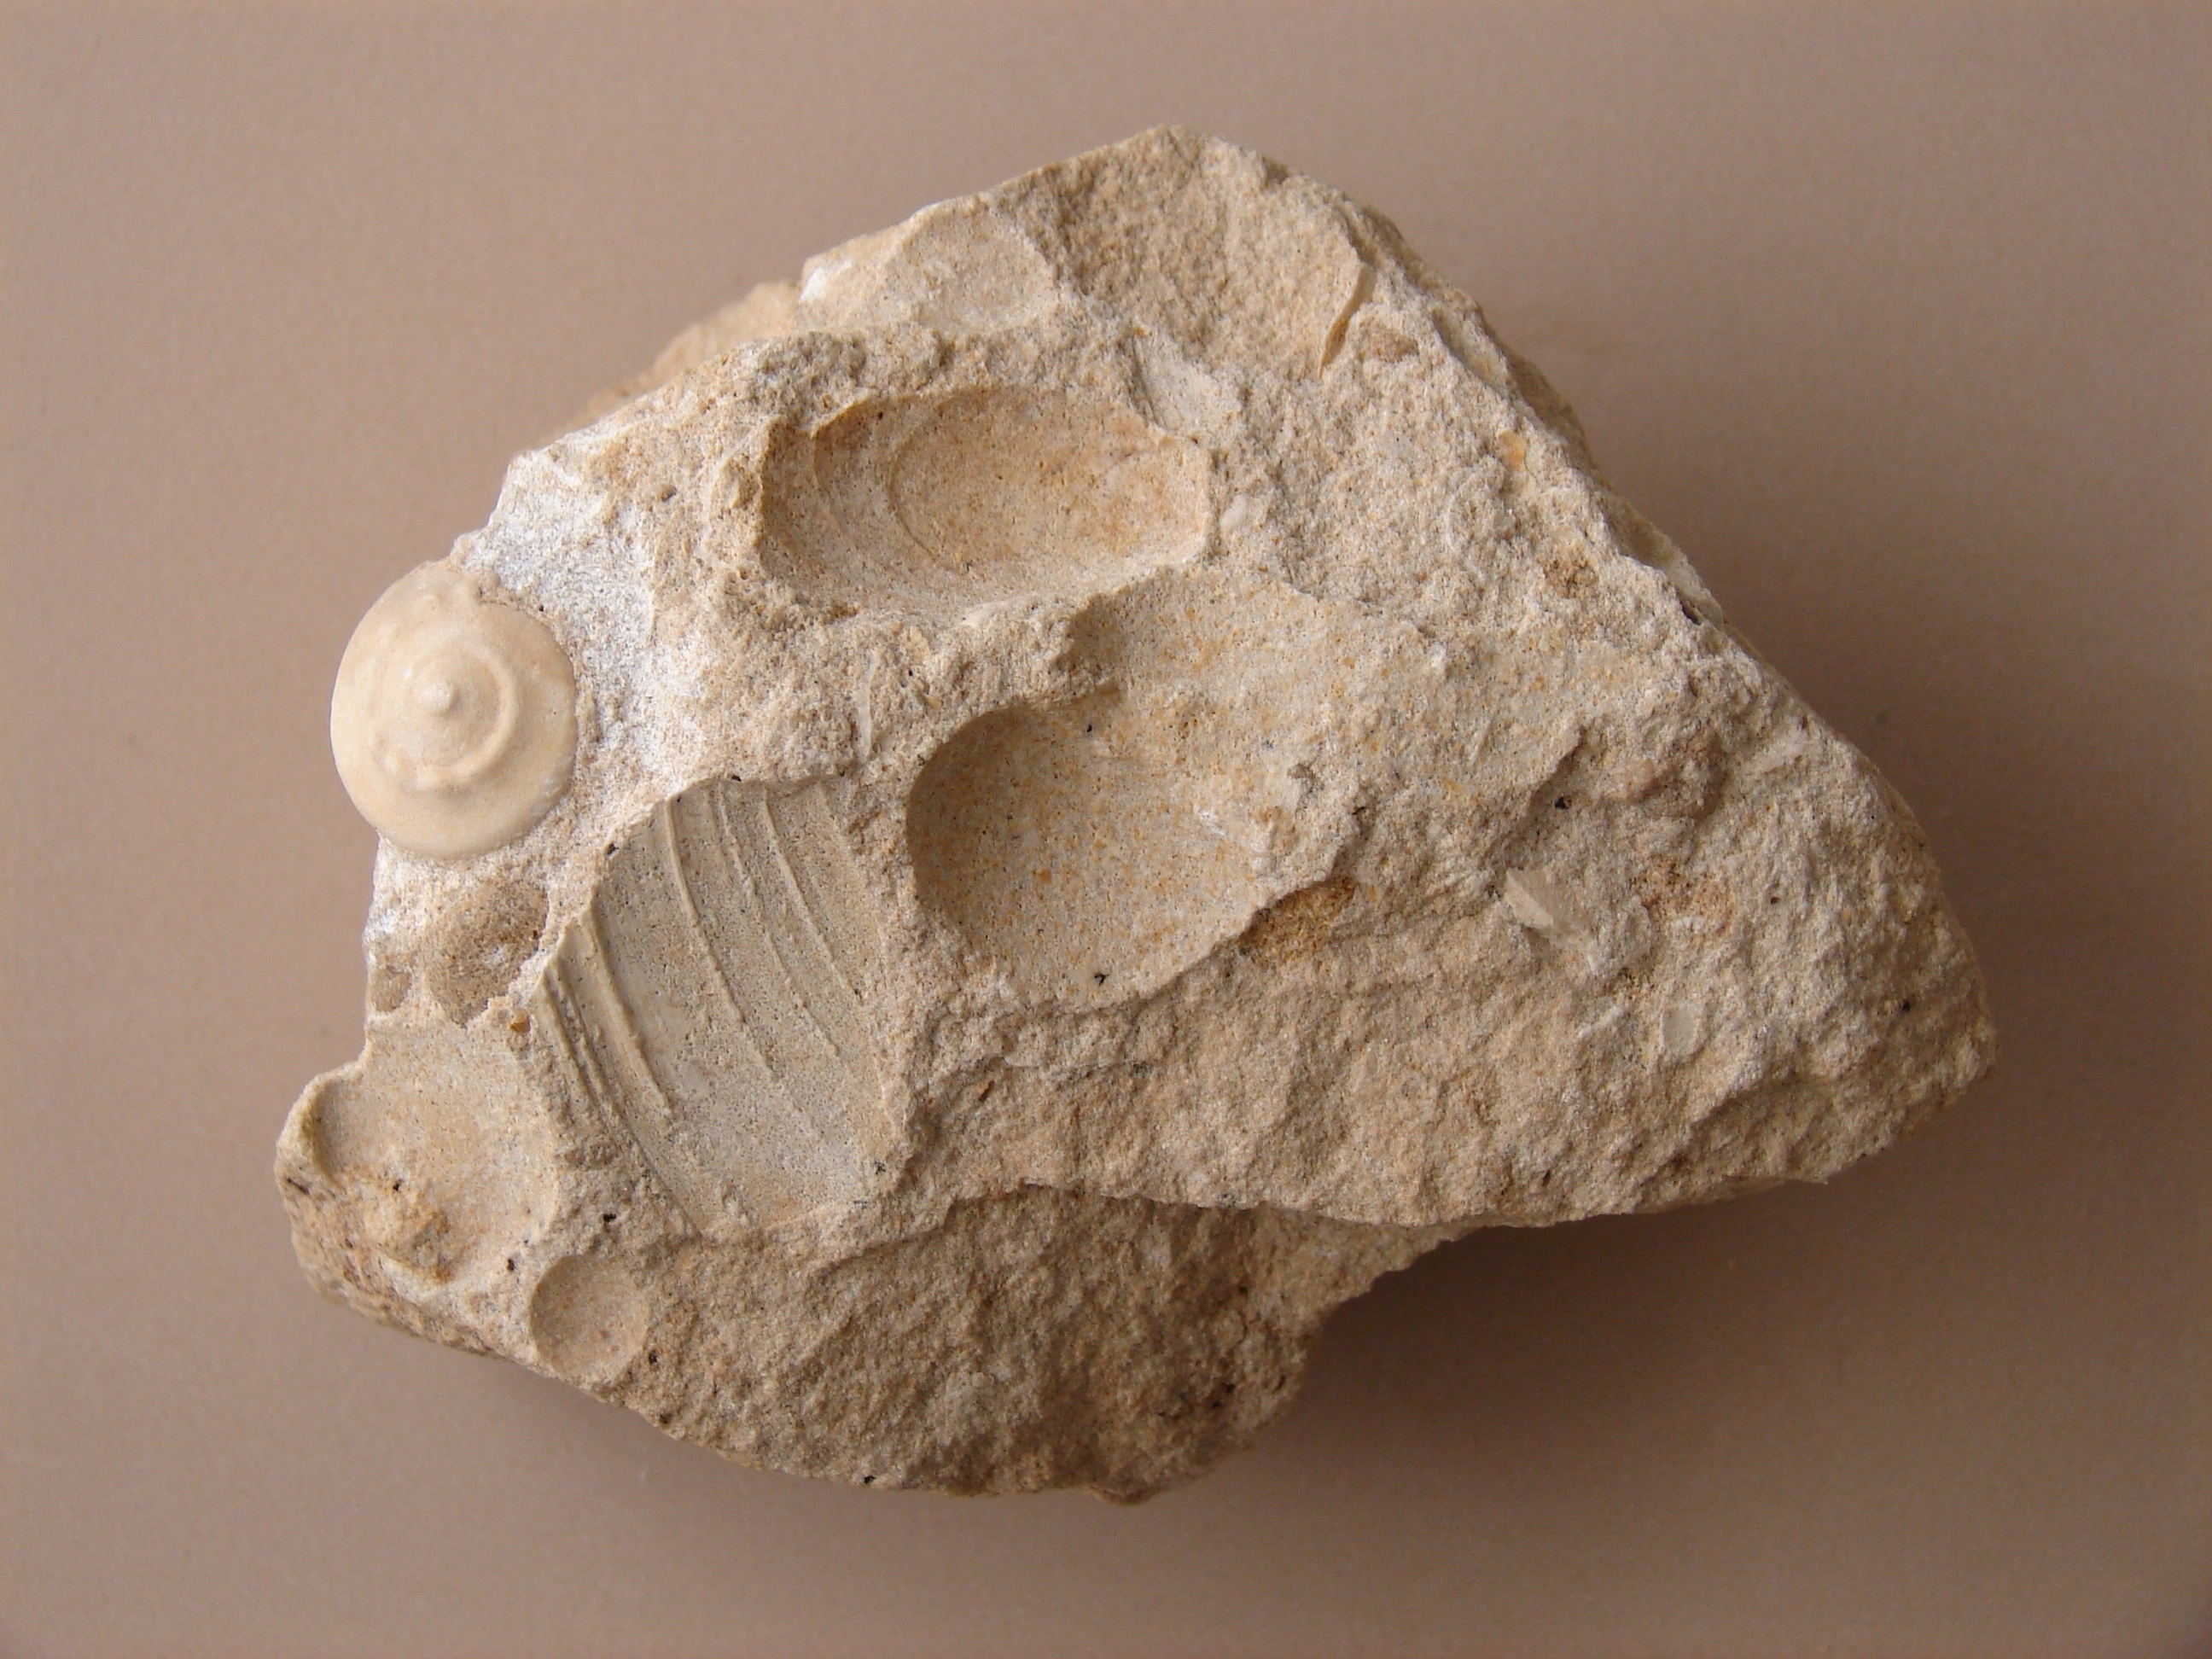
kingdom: Animalia
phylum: Mollusca
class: Gastropoda
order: Pleurotomariida
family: Ptychomphalidae
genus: Ptychomphalus
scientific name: Ptychomphalus Pleurotomaria wehenkeli
